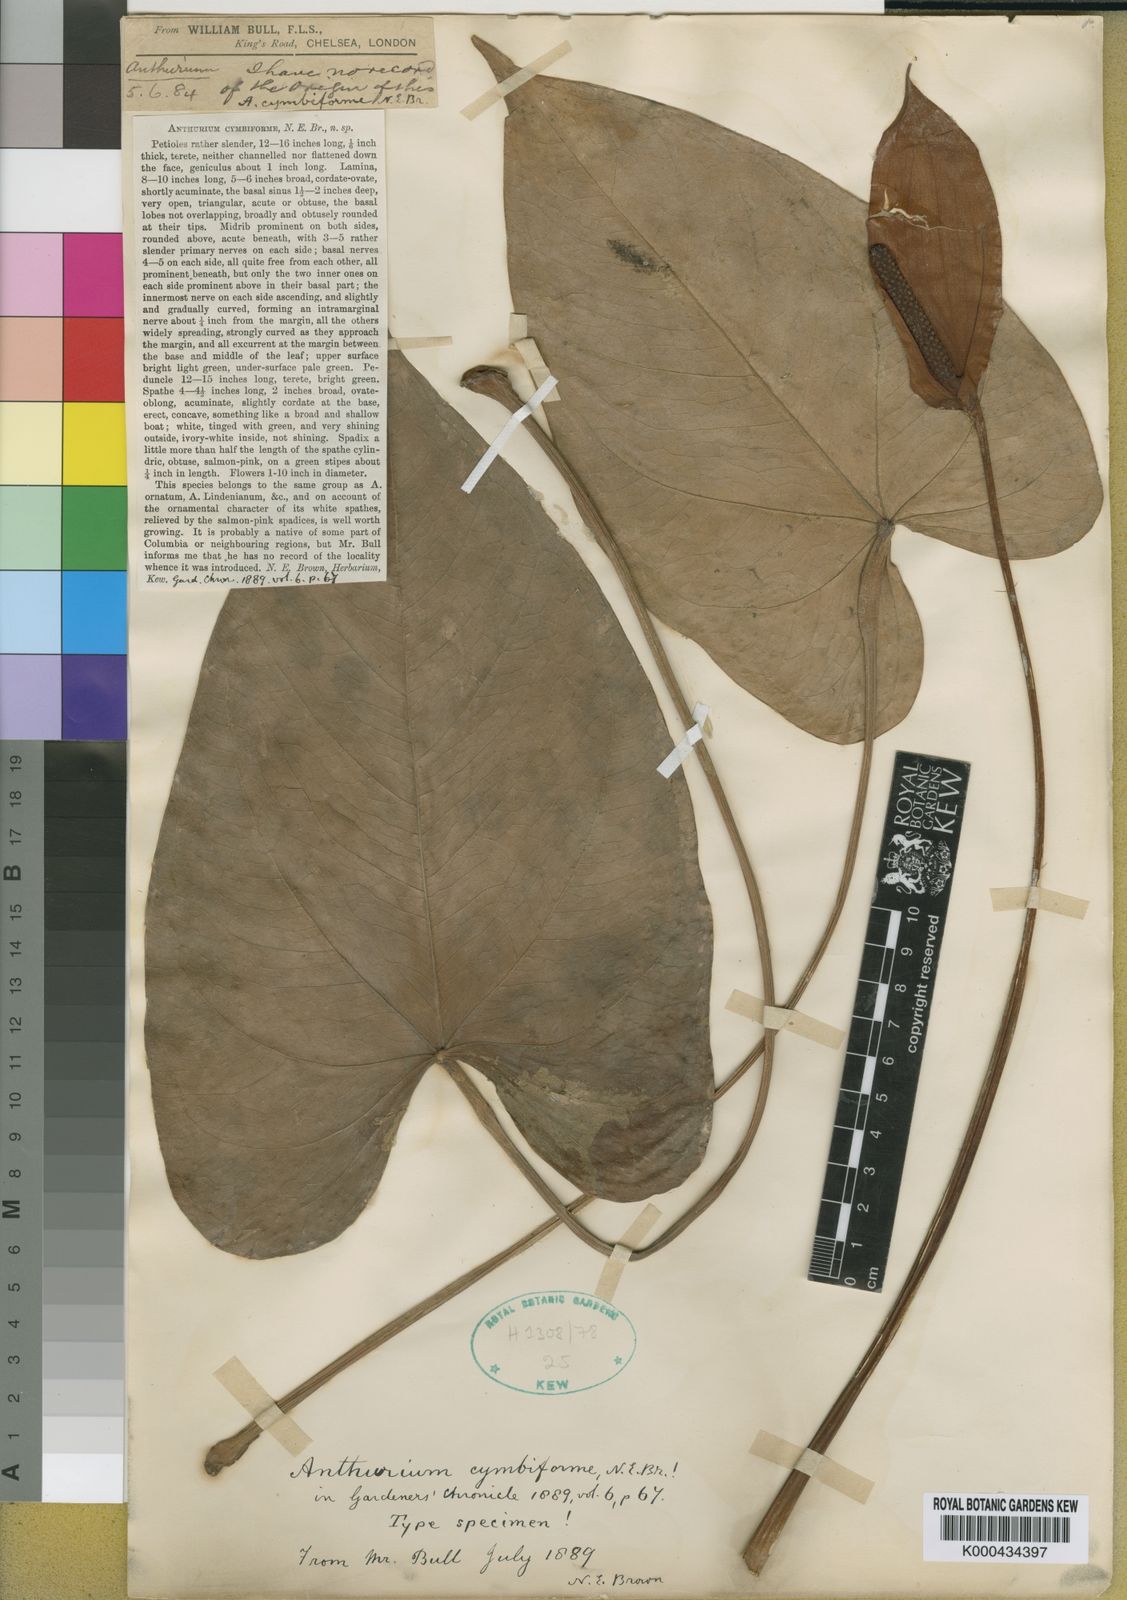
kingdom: Plantae
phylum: Tracheophyta
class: Liliopsida
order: Alismatales
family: Araceae
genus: Anthurium
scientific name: Anthurium cymbiforme
